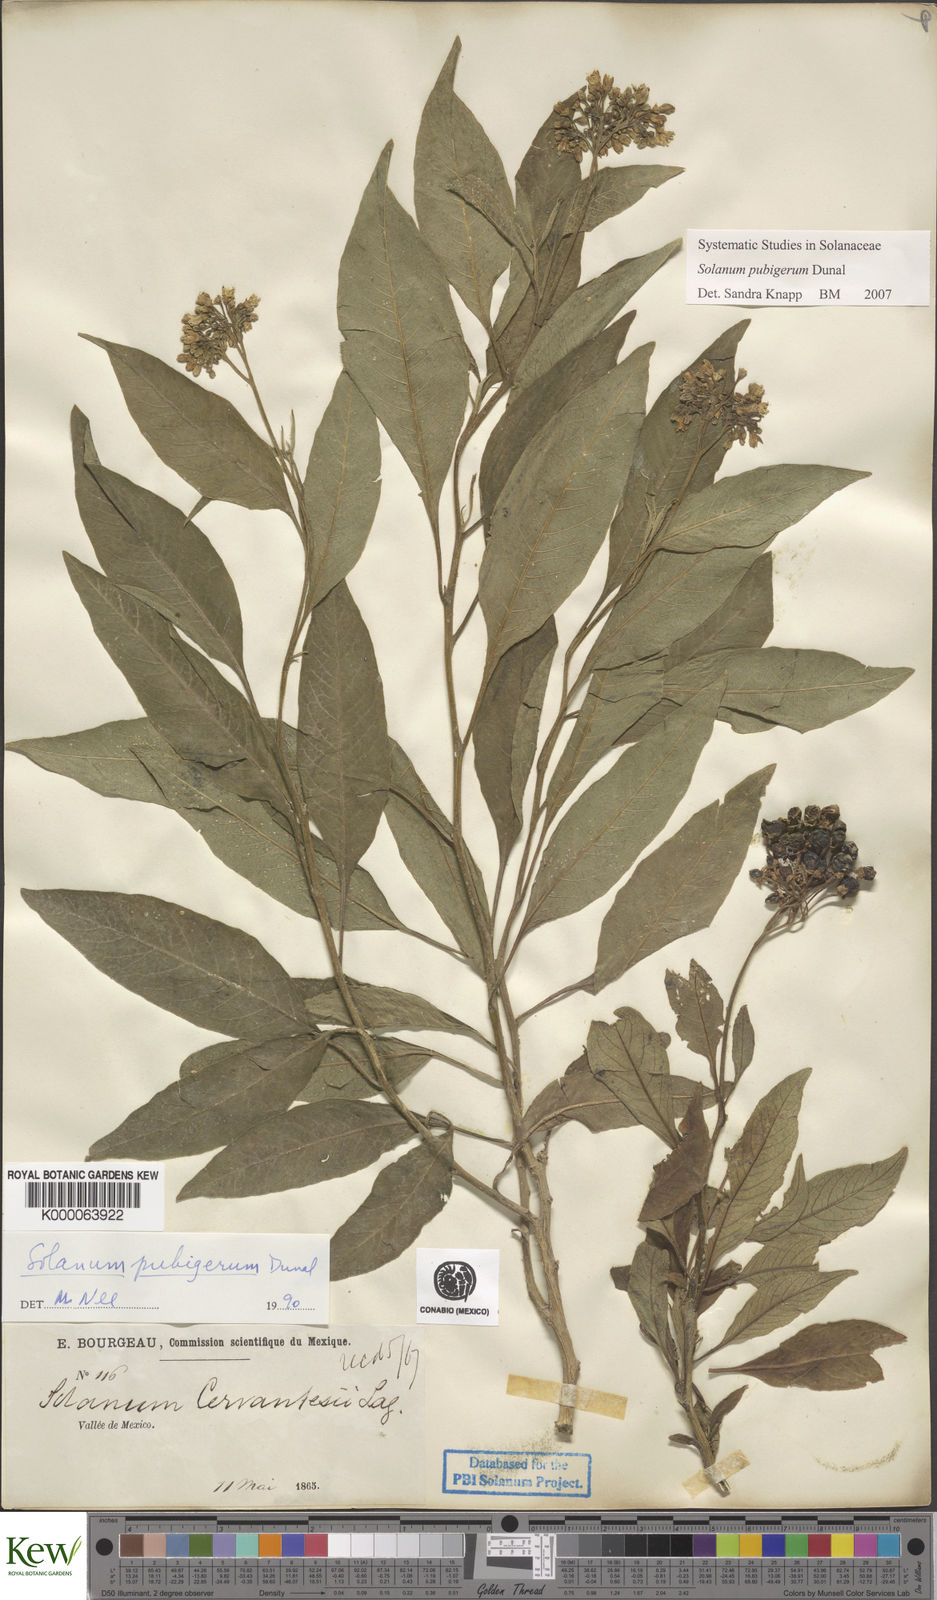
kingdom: Plantae
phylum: Tracheophyta
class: Magnoliopsida
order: Solanales
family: Solanaceae
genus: Solanum
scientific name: Solanum pubigerum
